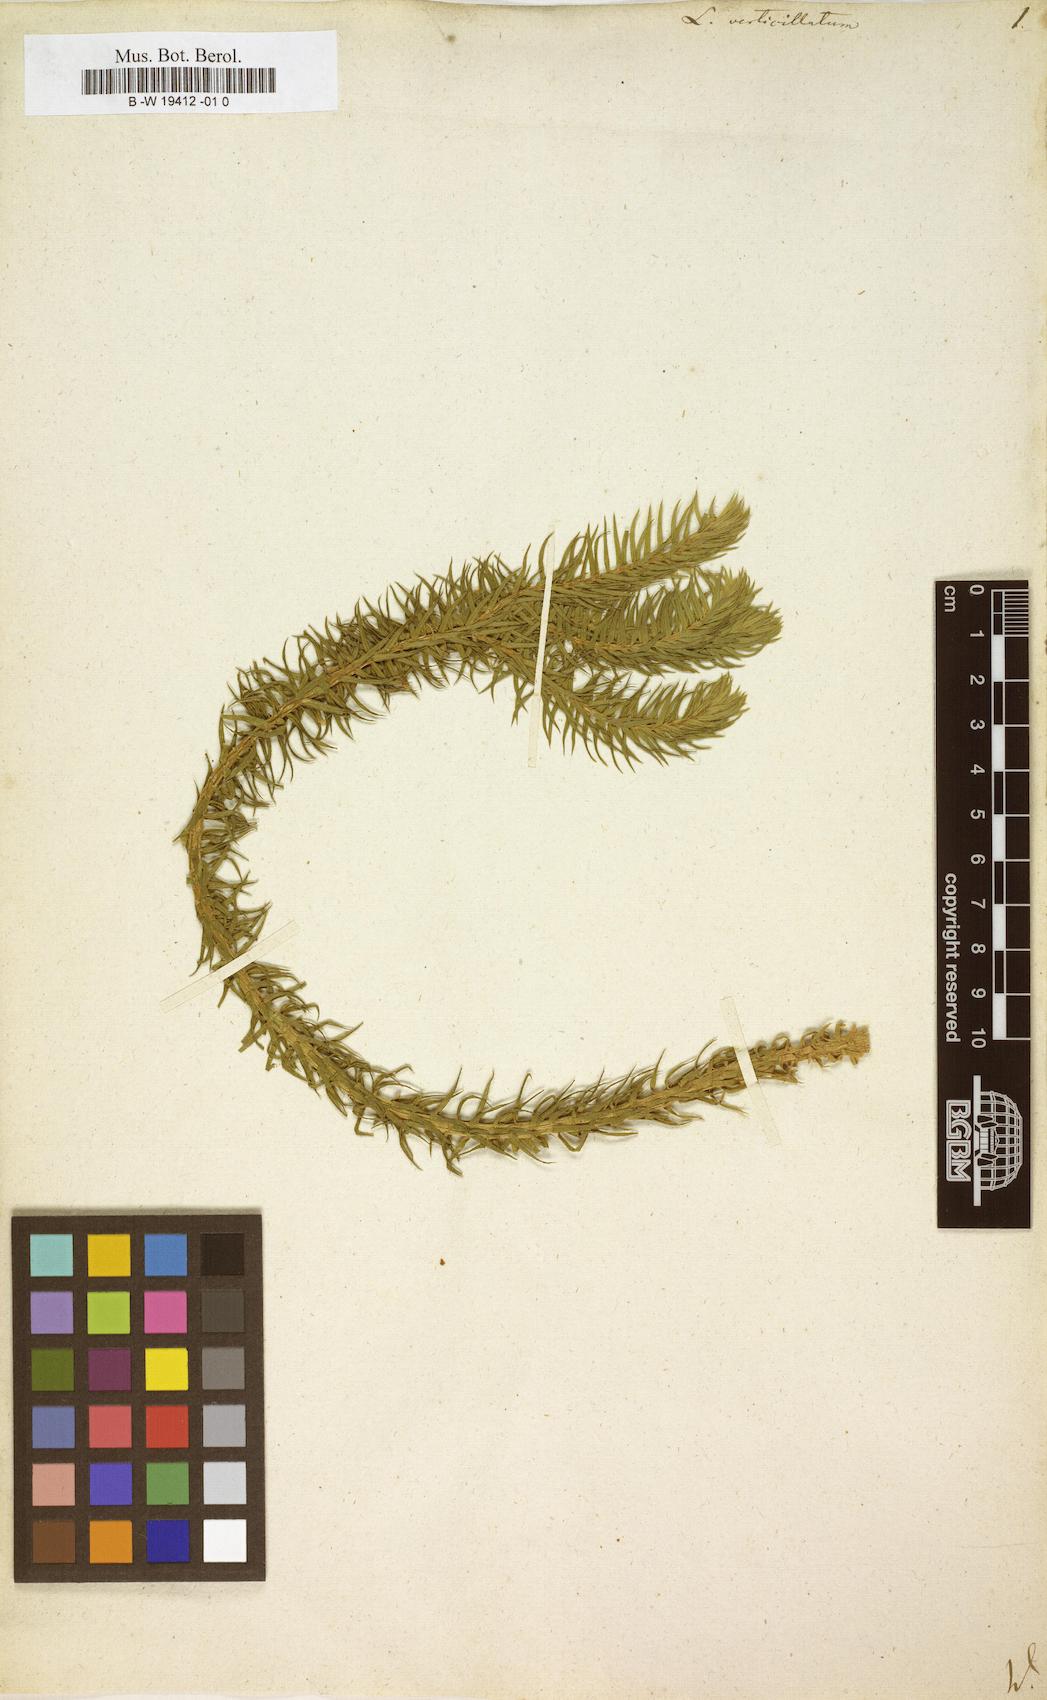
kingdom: Plantae
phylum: Tracheophyta
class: Lycopodiopsida
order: Lycopodiales
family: Lycopodiaceae
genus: Phlegmariurus
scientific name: Phlegmariurus verticillatus
